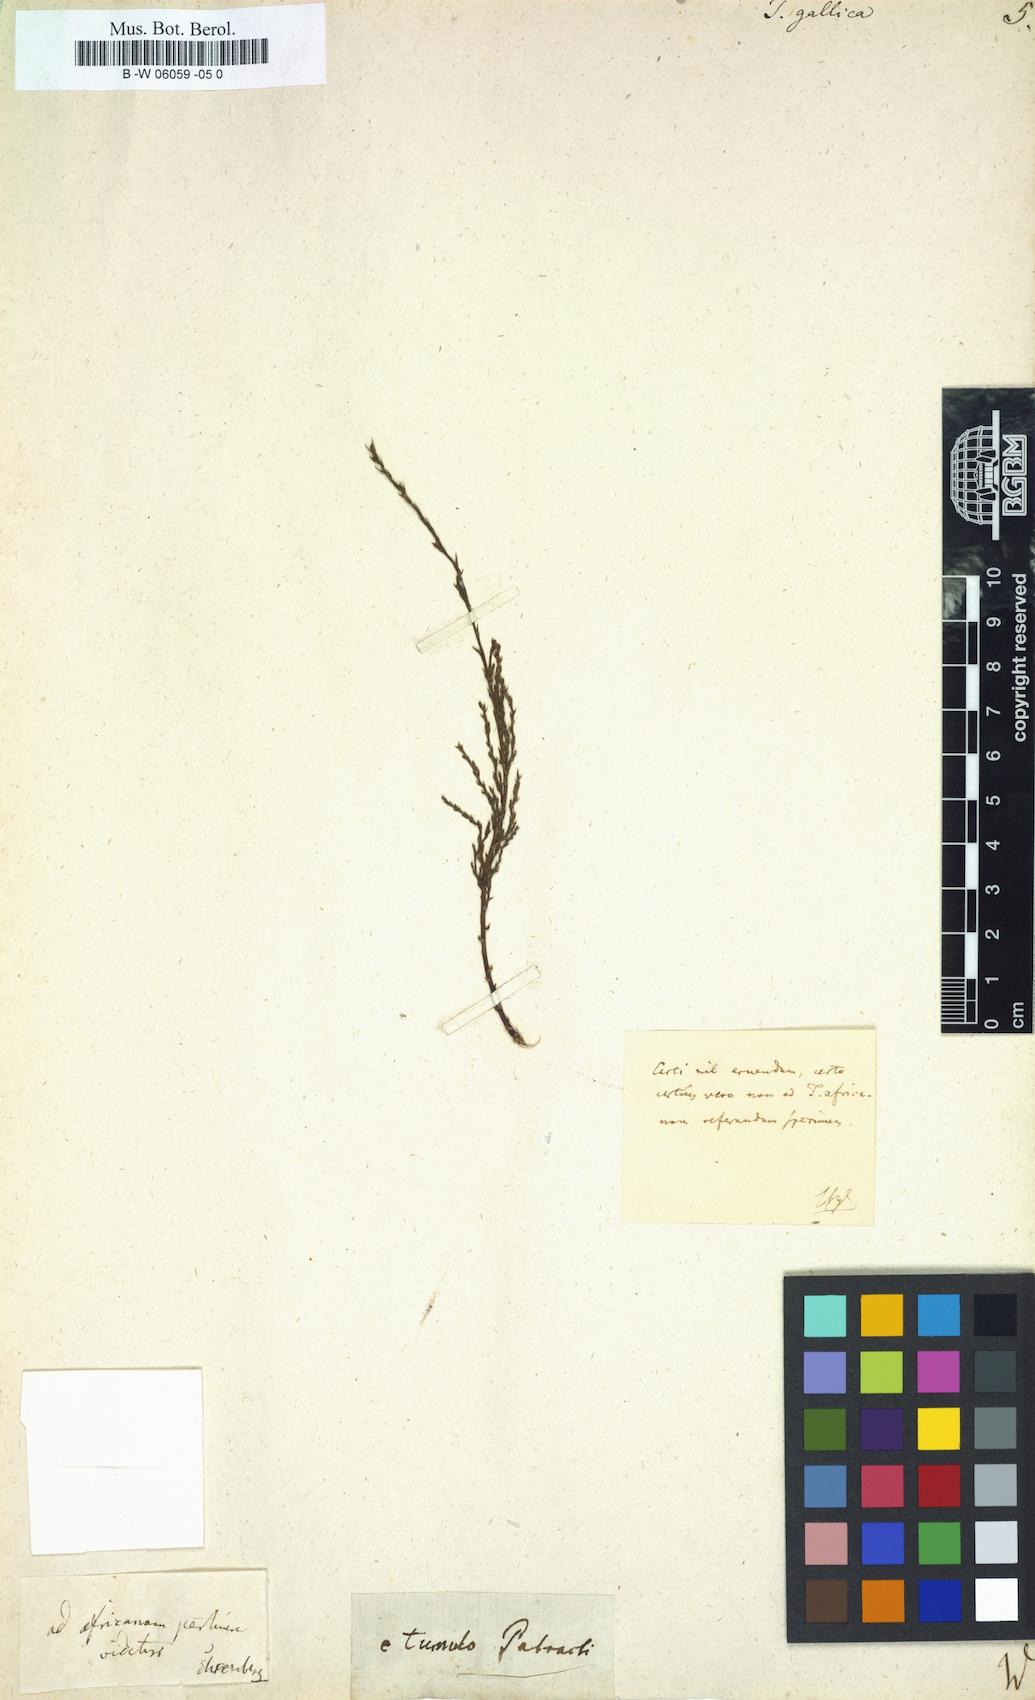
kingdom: Plantae
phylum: Tracheophyta
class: Magnoliopsida
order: Caryophyllales
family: Tamaricaceae
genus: Tamarix
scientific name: Tamarix gallica
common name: Tamarisk
